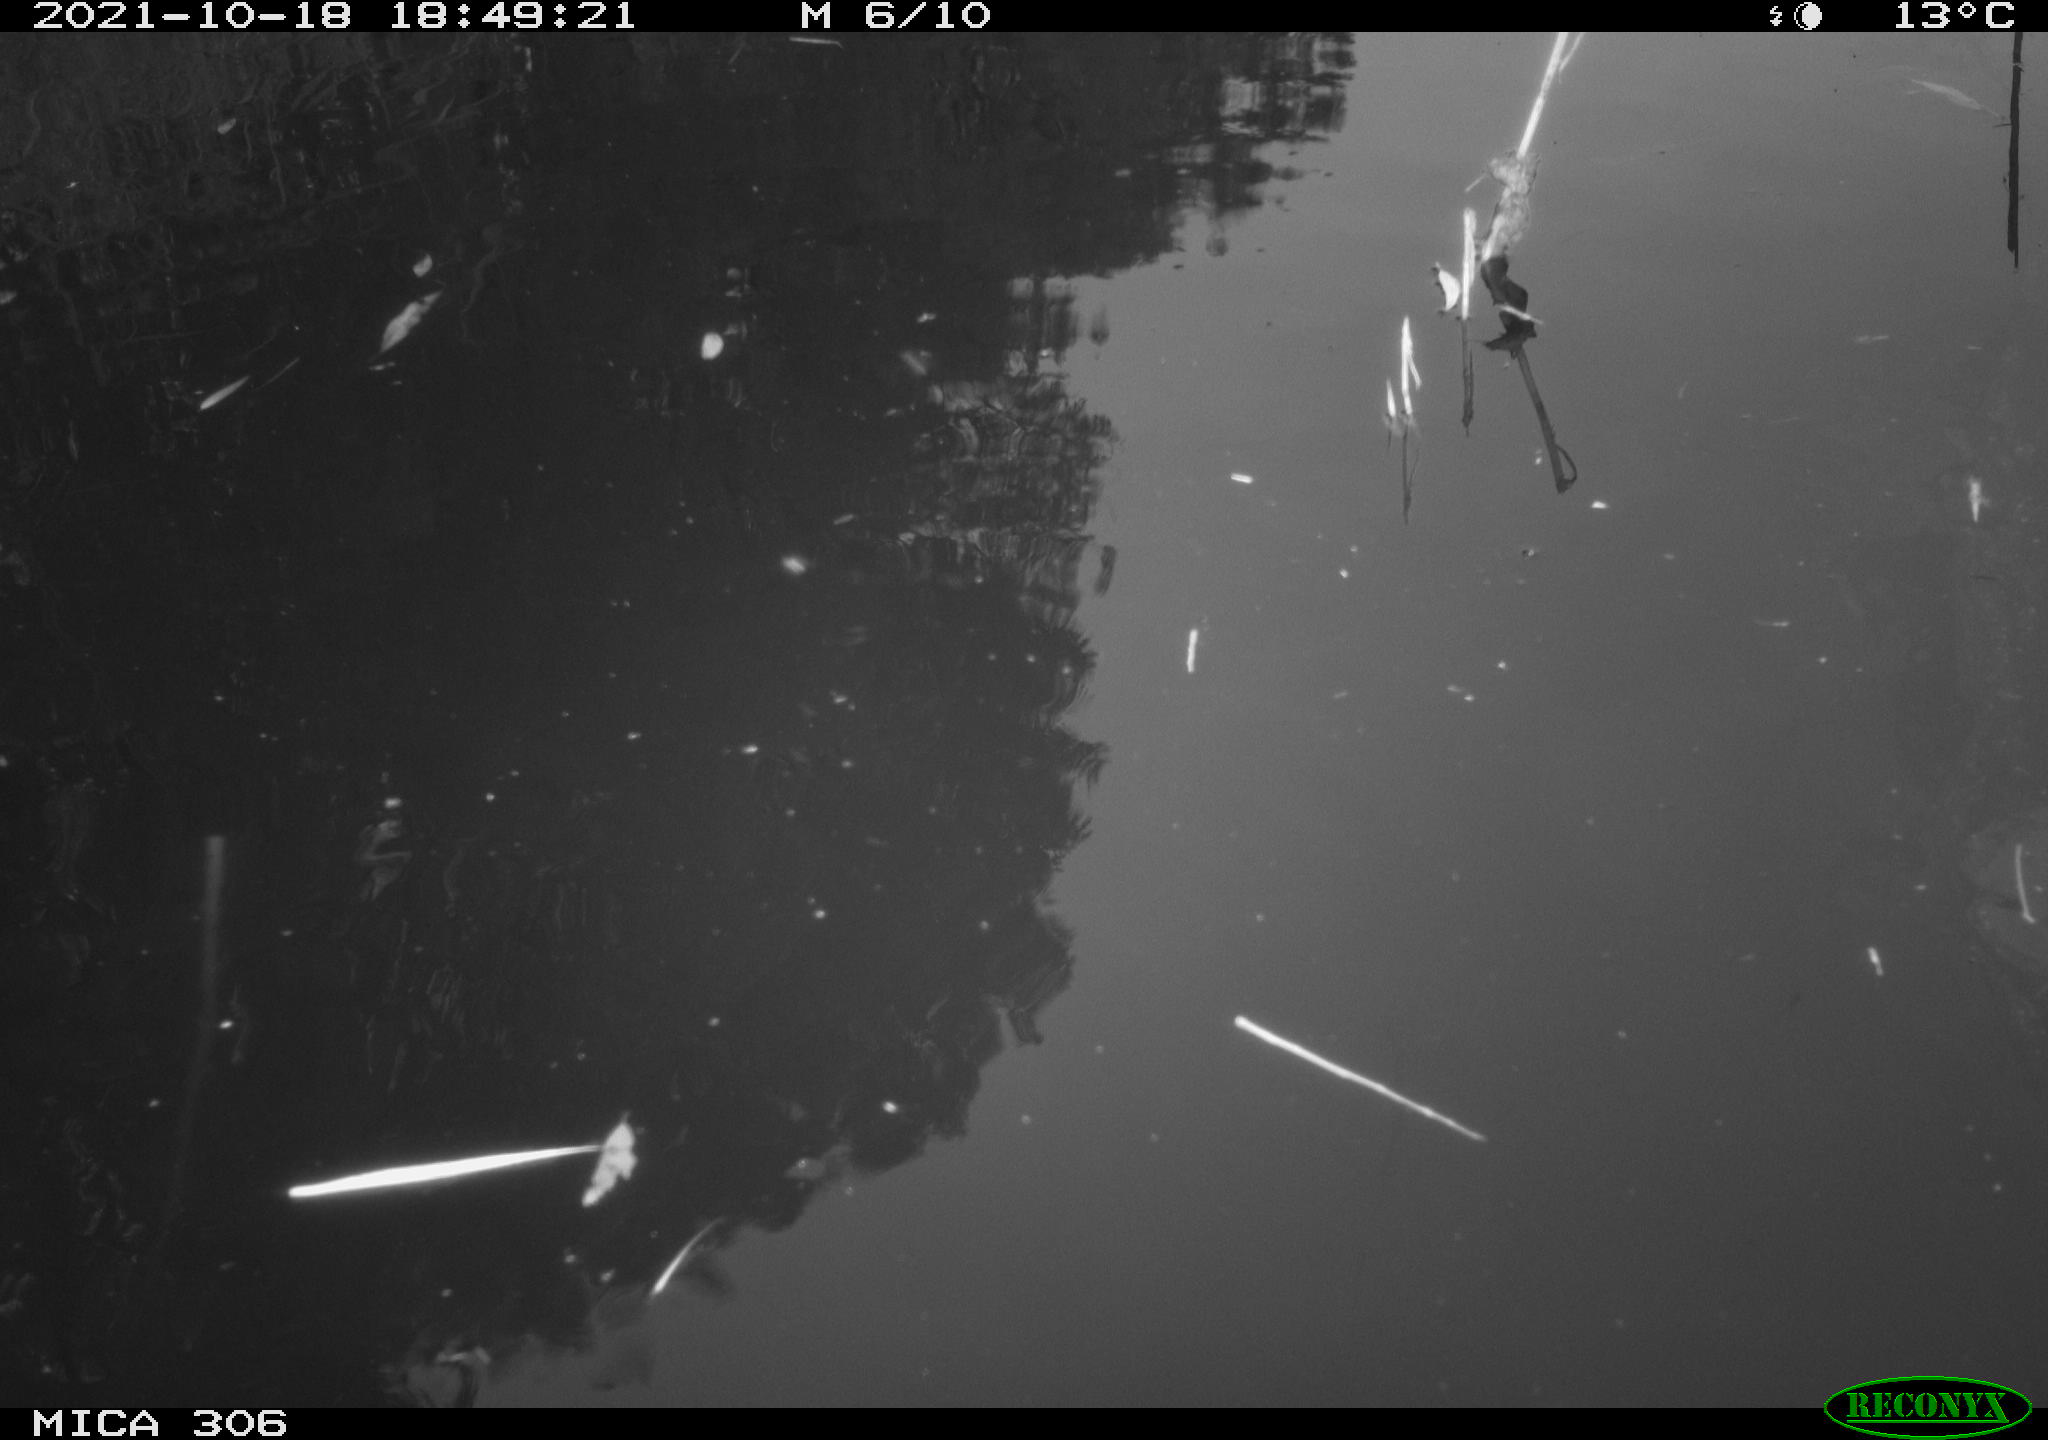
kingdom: Animalia
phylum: Chordata
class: Aves
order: Gruiformes
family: Rallidae
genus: Gallinula
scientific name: Gallinula chloropus
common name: Common moorhen
